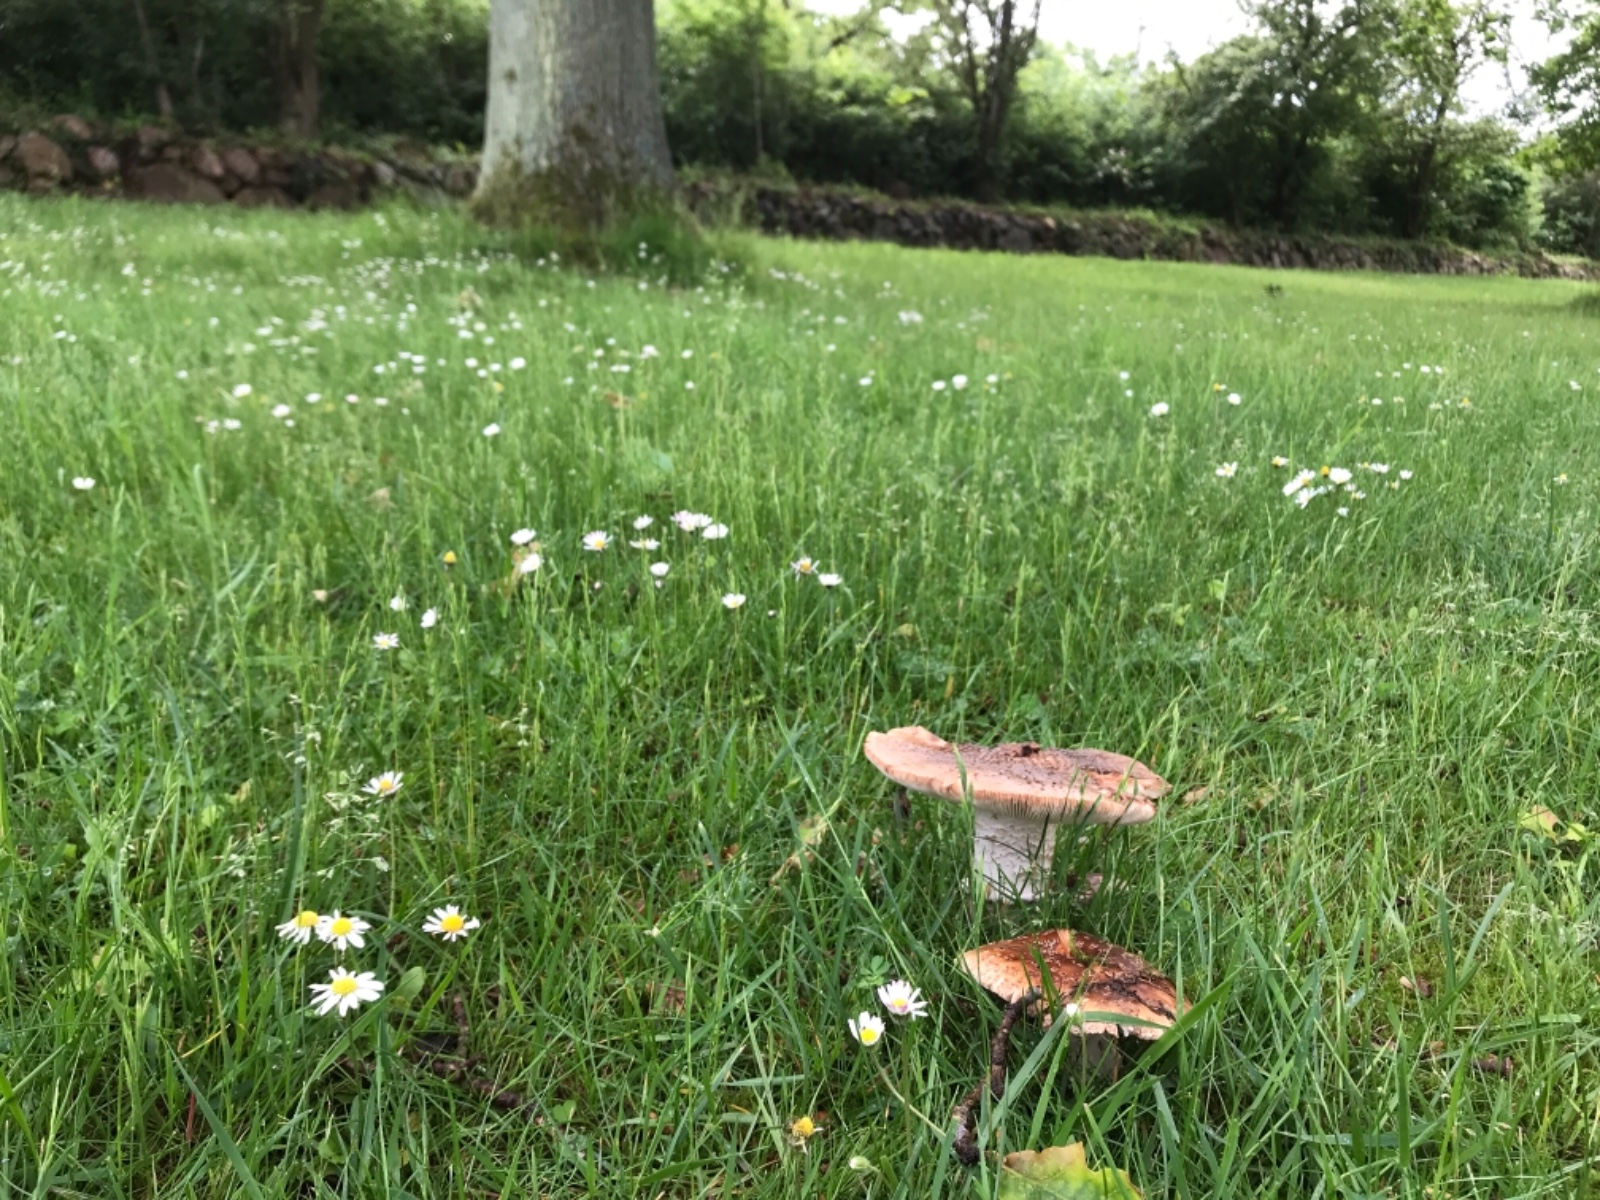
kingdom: Fungi
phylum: Basidiomycota
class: Agaricomycetes
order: Agaricales
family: Amanitaceae
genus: Amanita
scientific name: Amanita rubescens
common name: rødmende fluesvamp
